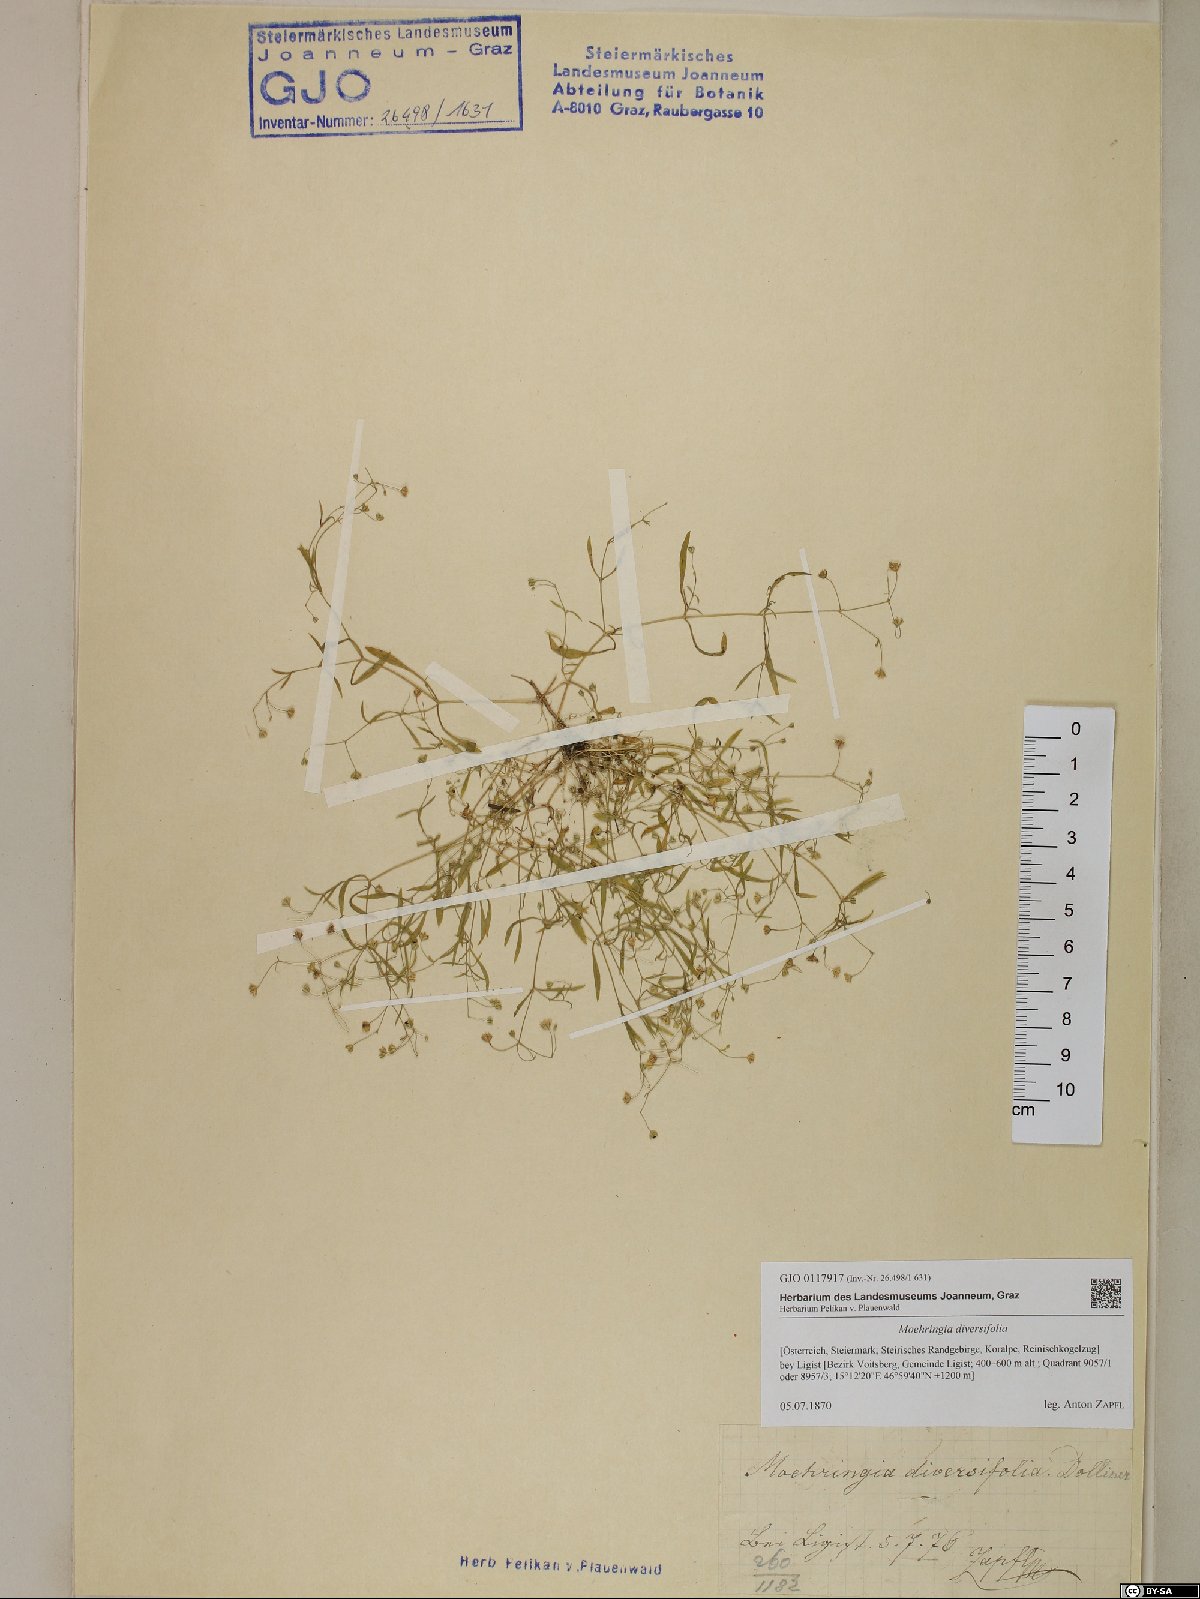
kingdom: Plantae
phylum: Tracheophyta
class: Magnoliopsida
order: Caryophyllales
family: Caryophyllaceae
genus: Moehringia
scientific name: Moehringia diversifolia
